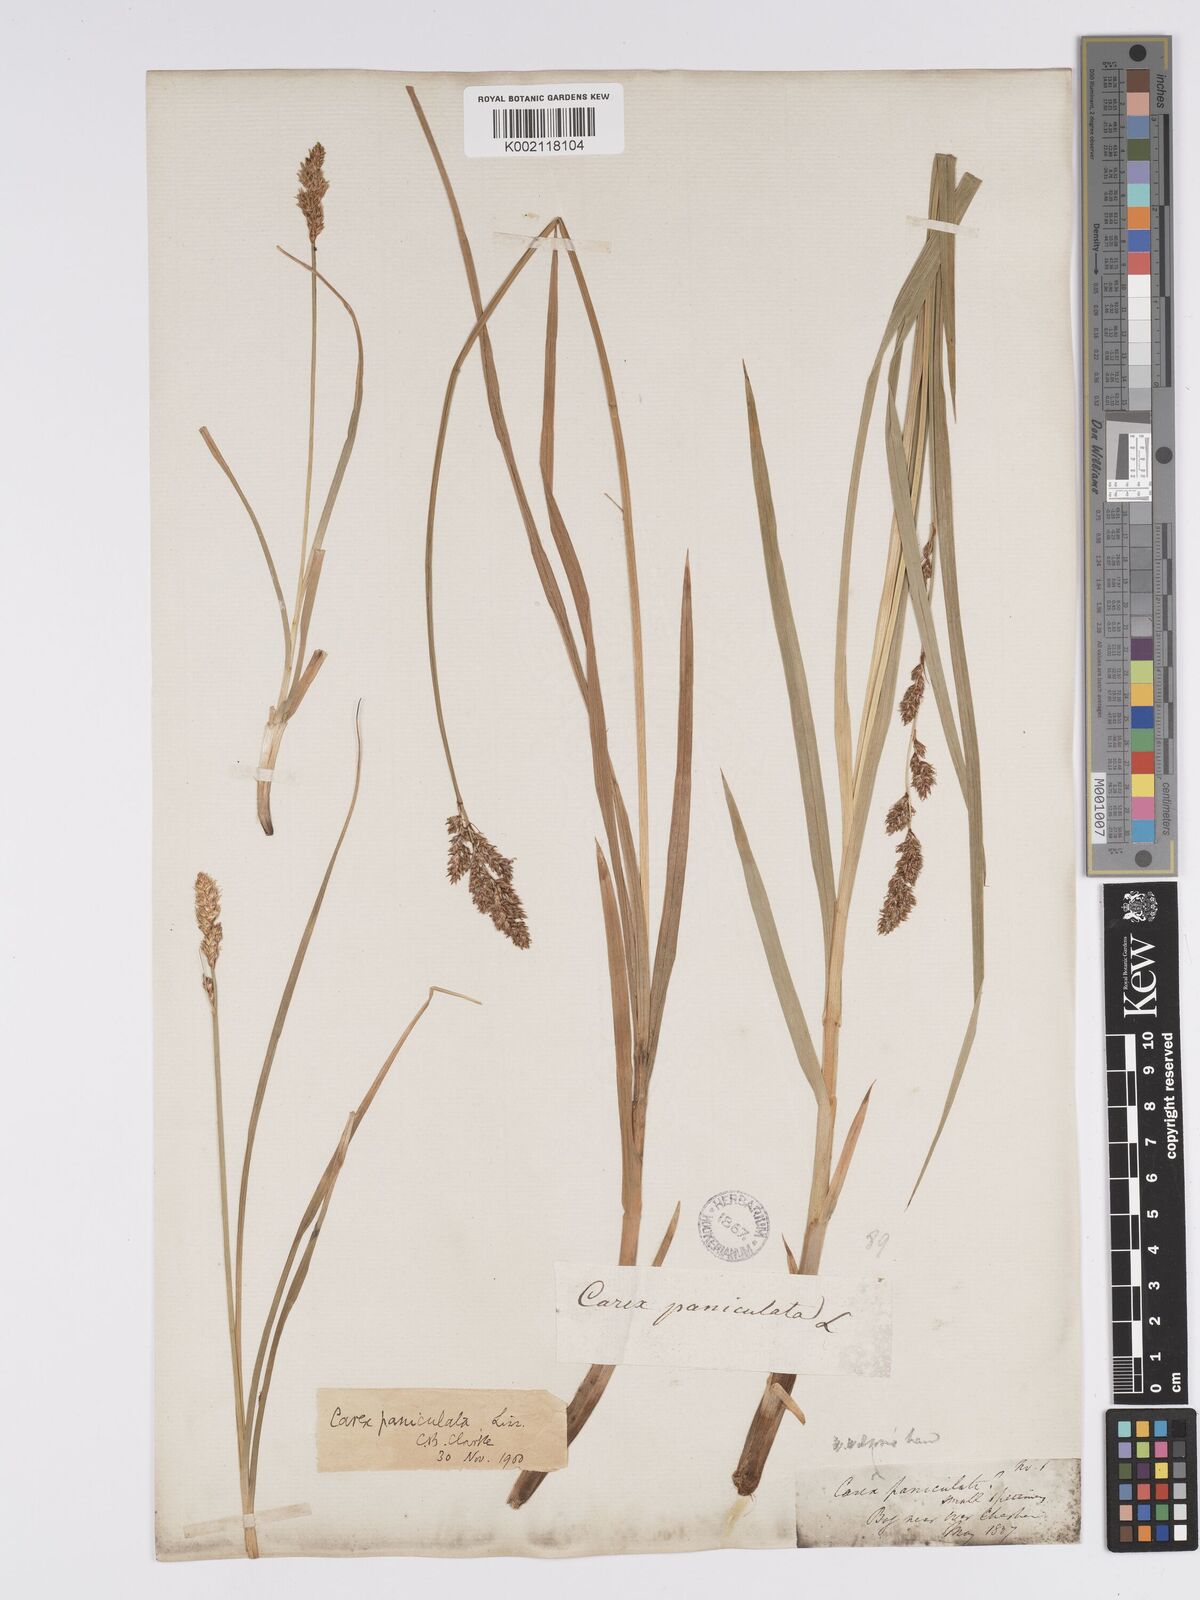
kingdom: Plantae
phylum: Tracheophyta
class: Liliopsida
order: Poales
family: Cyperaceae
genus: Carex
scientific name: Carex paniculata
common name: Greater tussock-sedge
